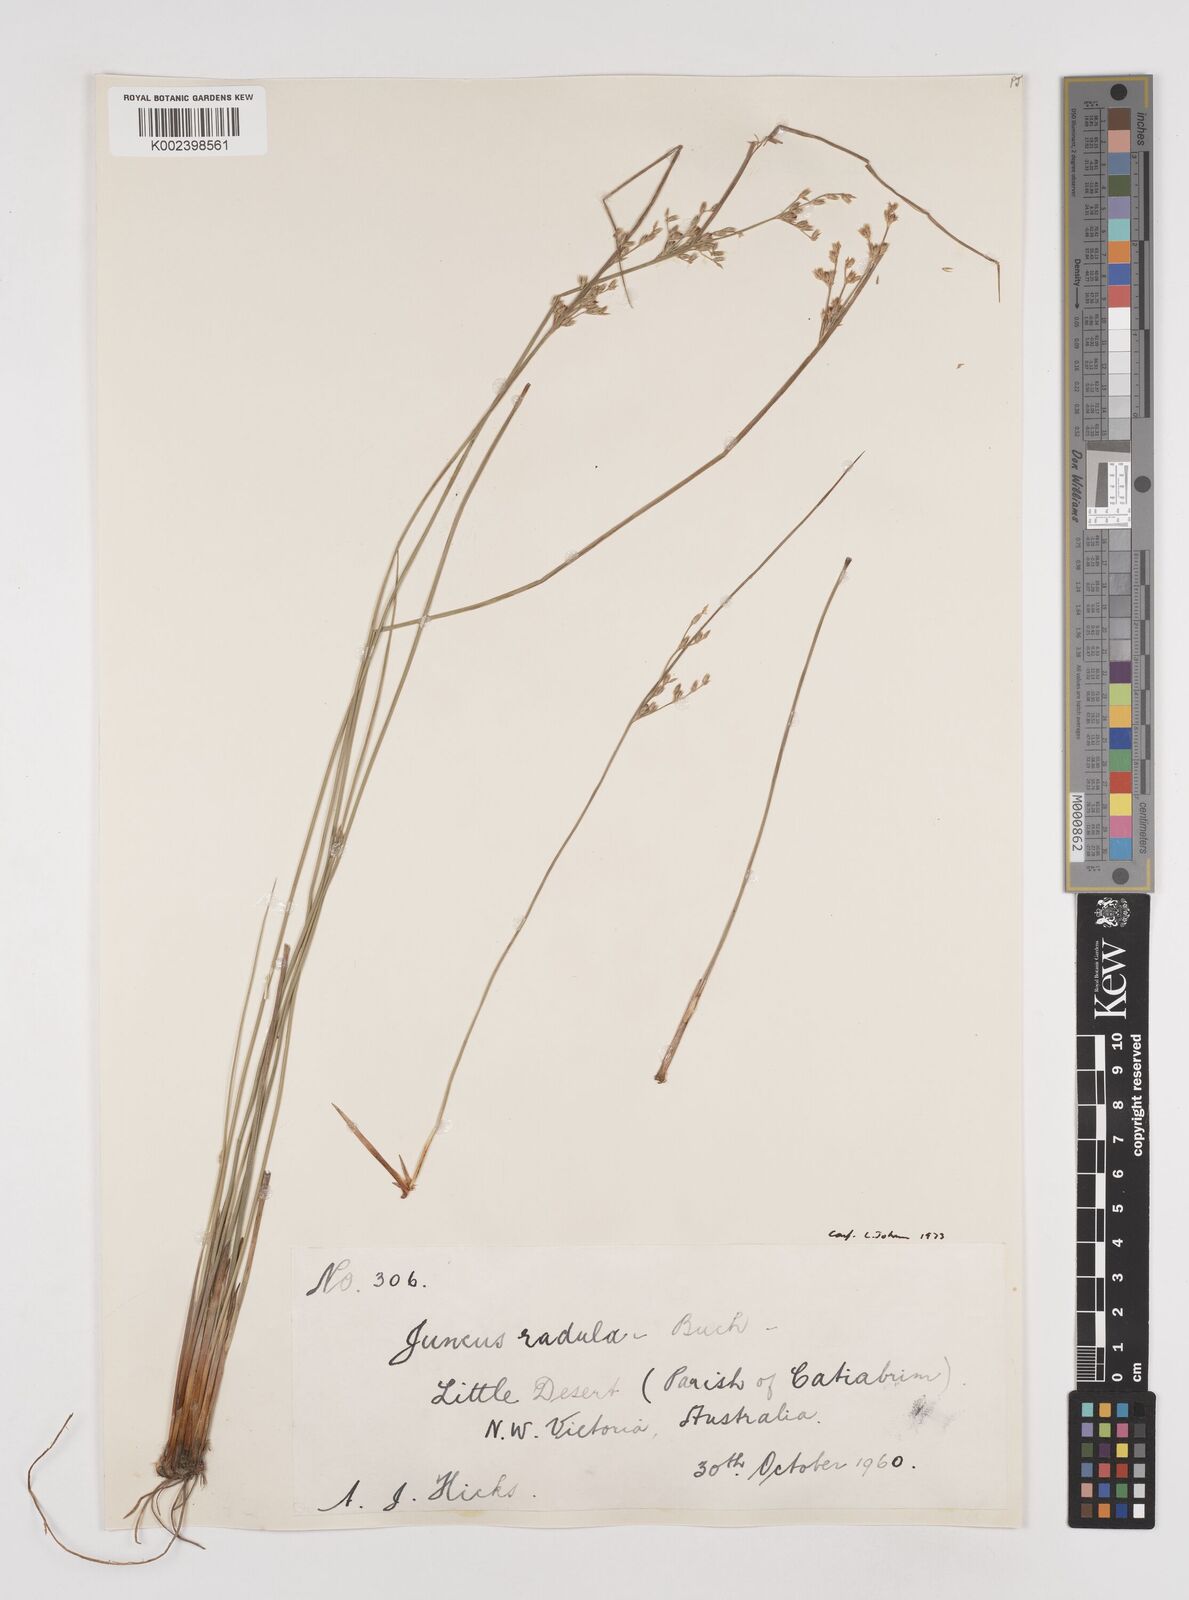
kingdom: Plantae
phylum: Tracheophyta
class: Liliopsida
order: Poales
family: Juncaceae
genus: Juncus
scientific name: Juncus radula
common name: Hoary rush
